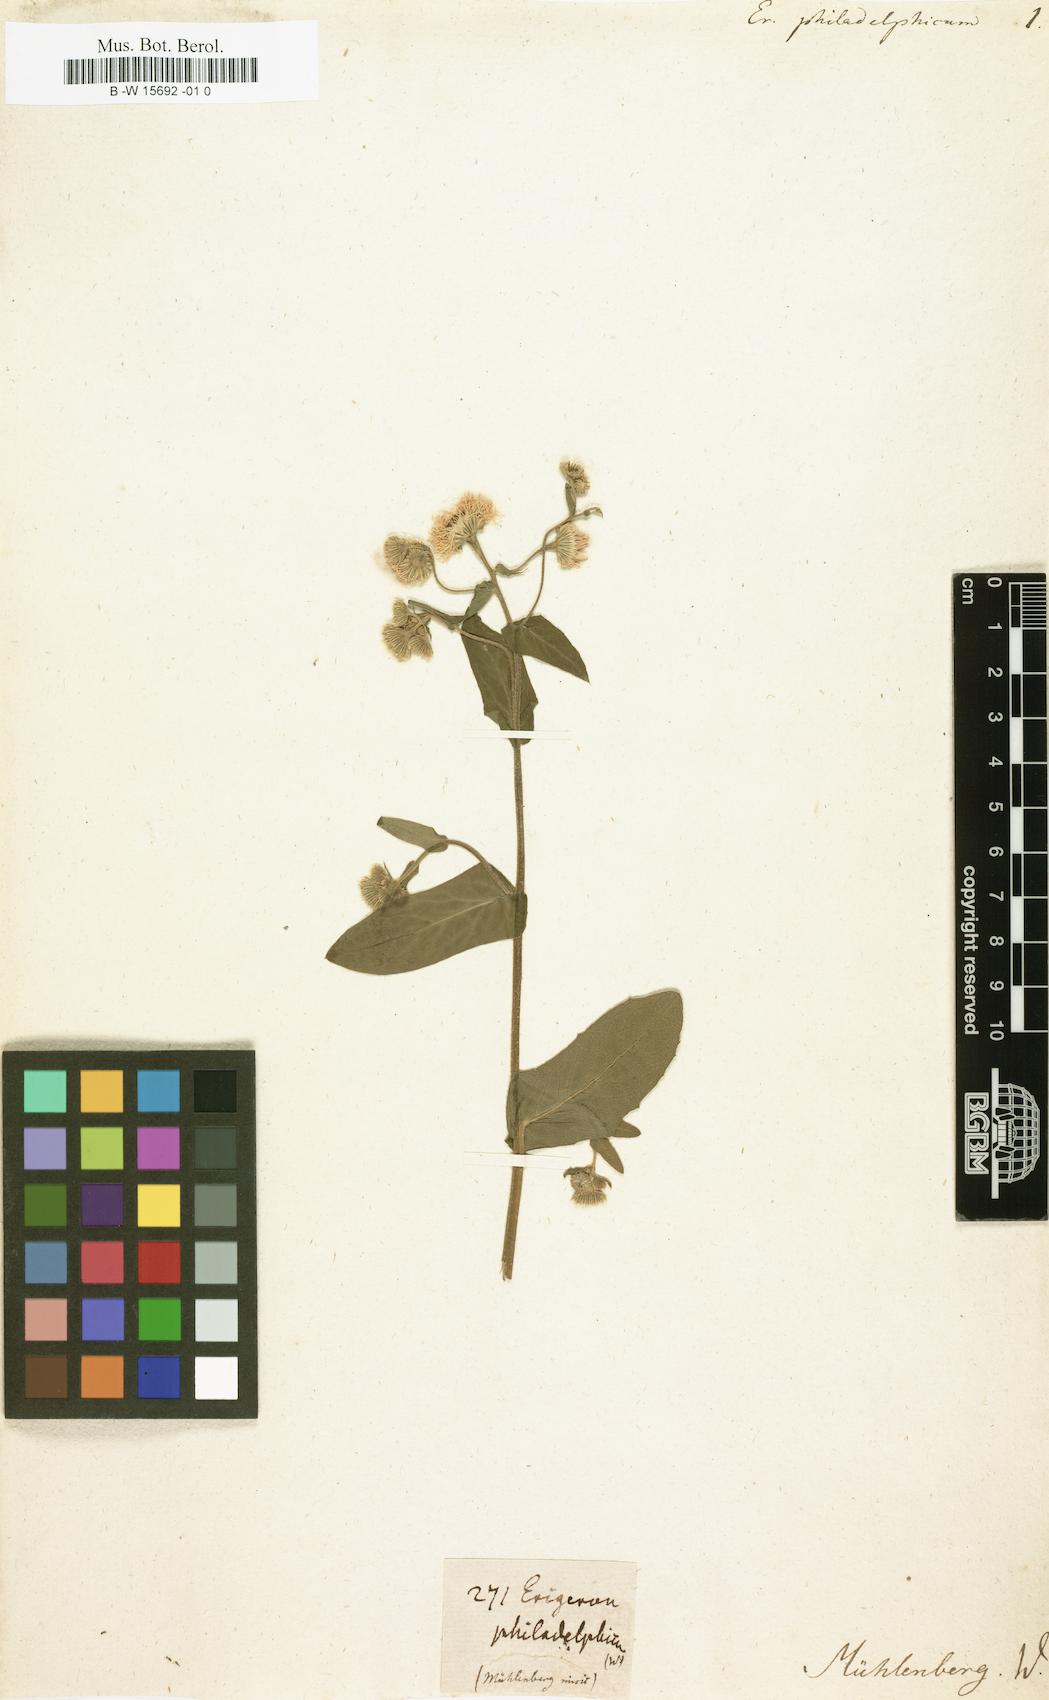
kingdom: Plantae
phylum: Tracheophyta
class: Magnoliopsida
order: Asterales
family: Asteraceae
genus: Erigeron
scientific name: Erigeron philadelphicus
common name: Robin's-plantain
